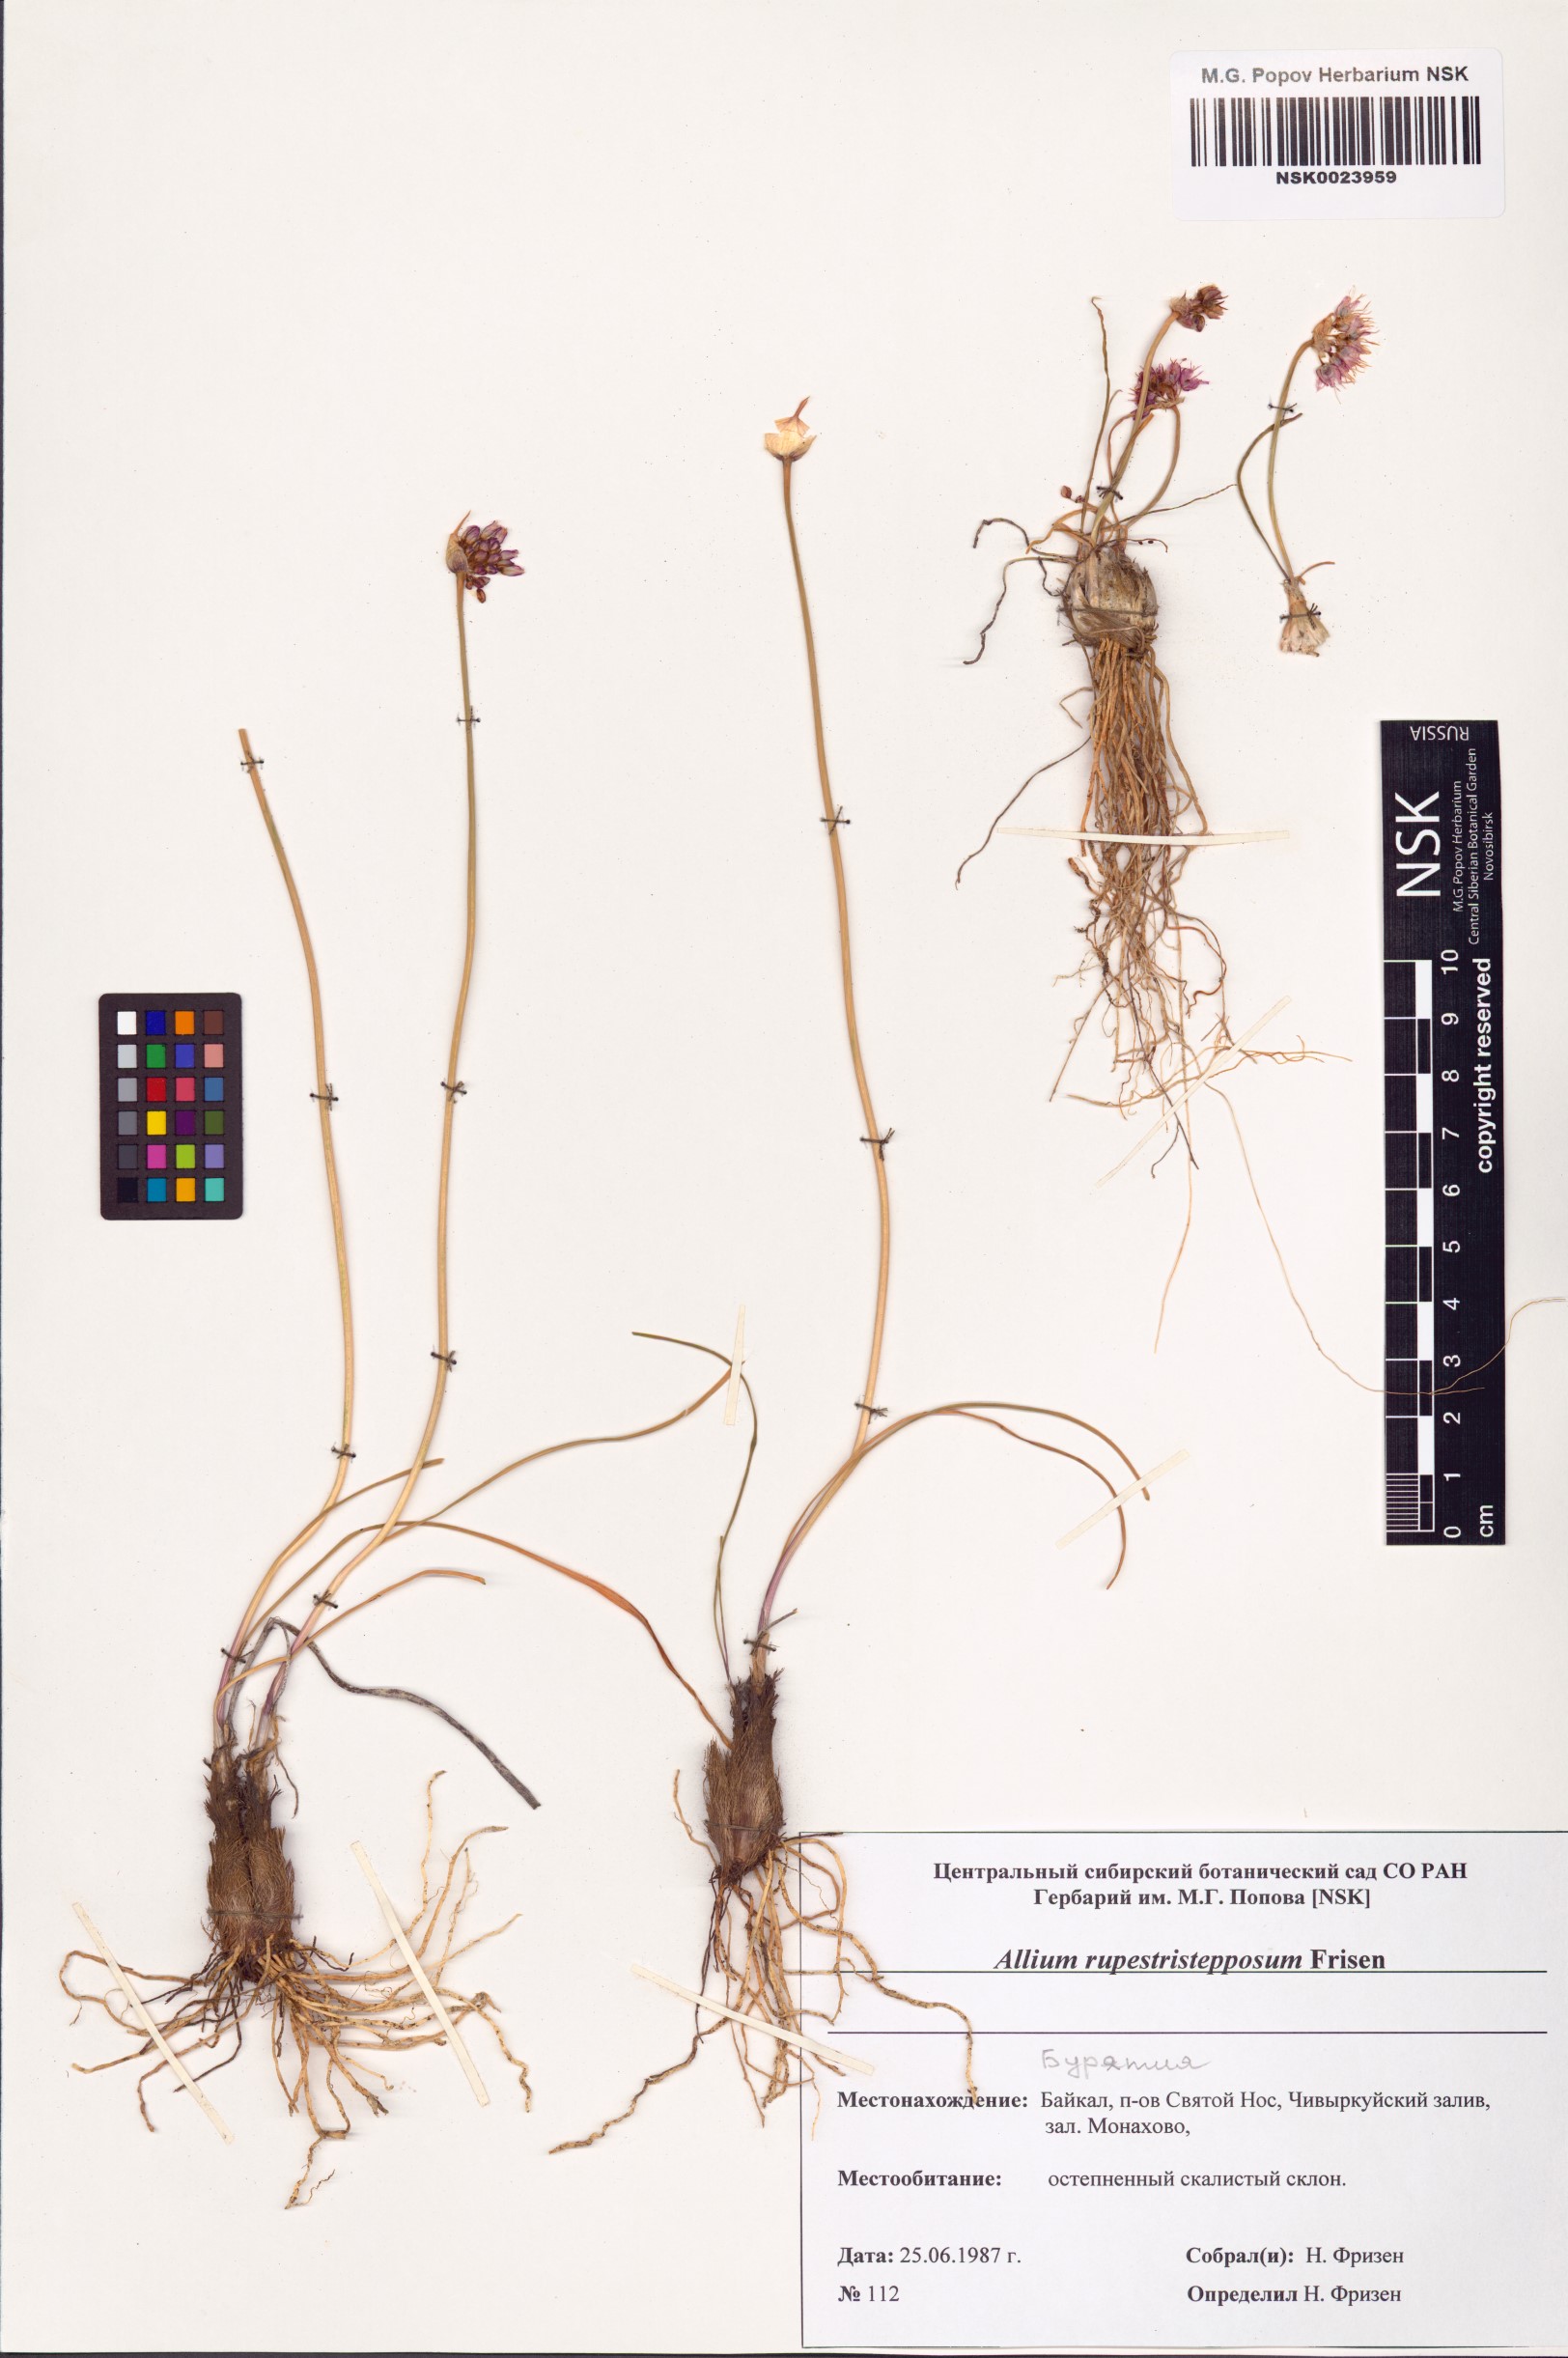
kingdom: Plantae
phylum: Tracheophyta
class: Liliopsida
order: Asparagales
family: Amaryllidaceae
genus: Allium
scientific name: Allium rupestristepposum
